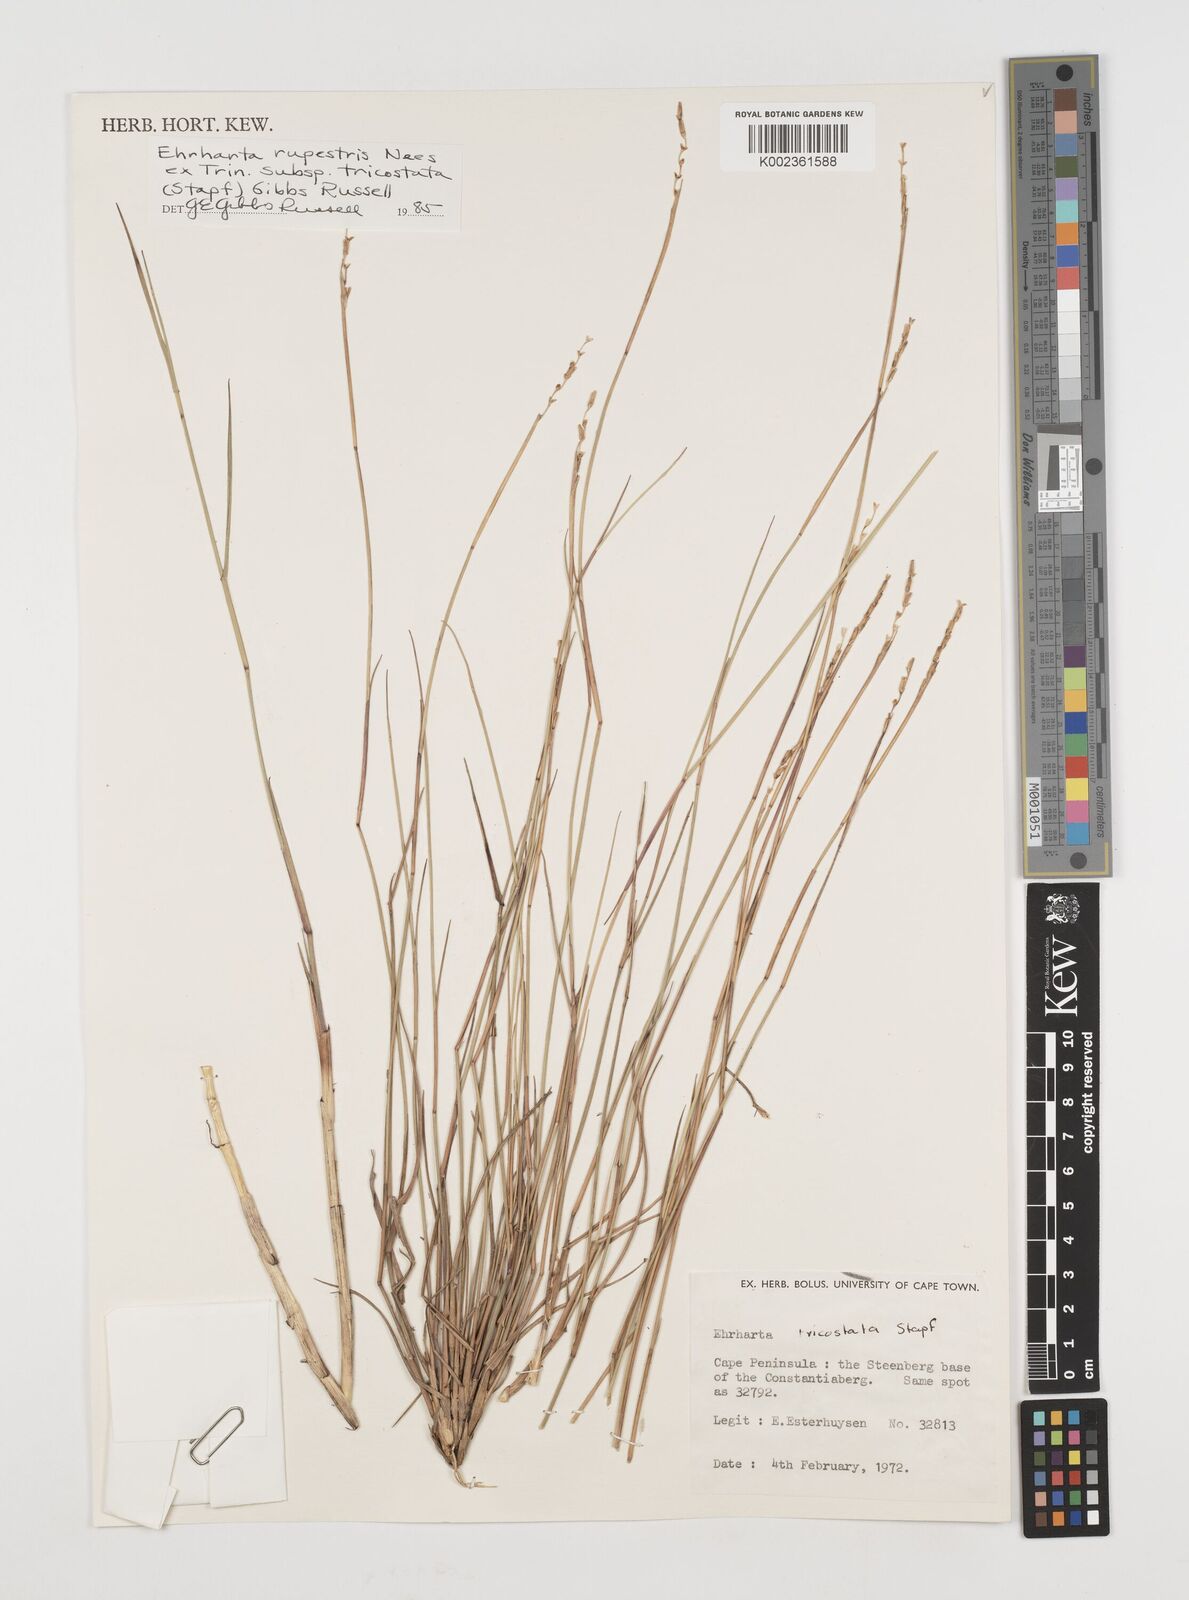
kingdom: Plantae
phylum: Tracheophyta
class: Liliopsida
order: Poales
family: Poaceae
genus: Ehrharta
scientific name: Ehrharta rupestris
